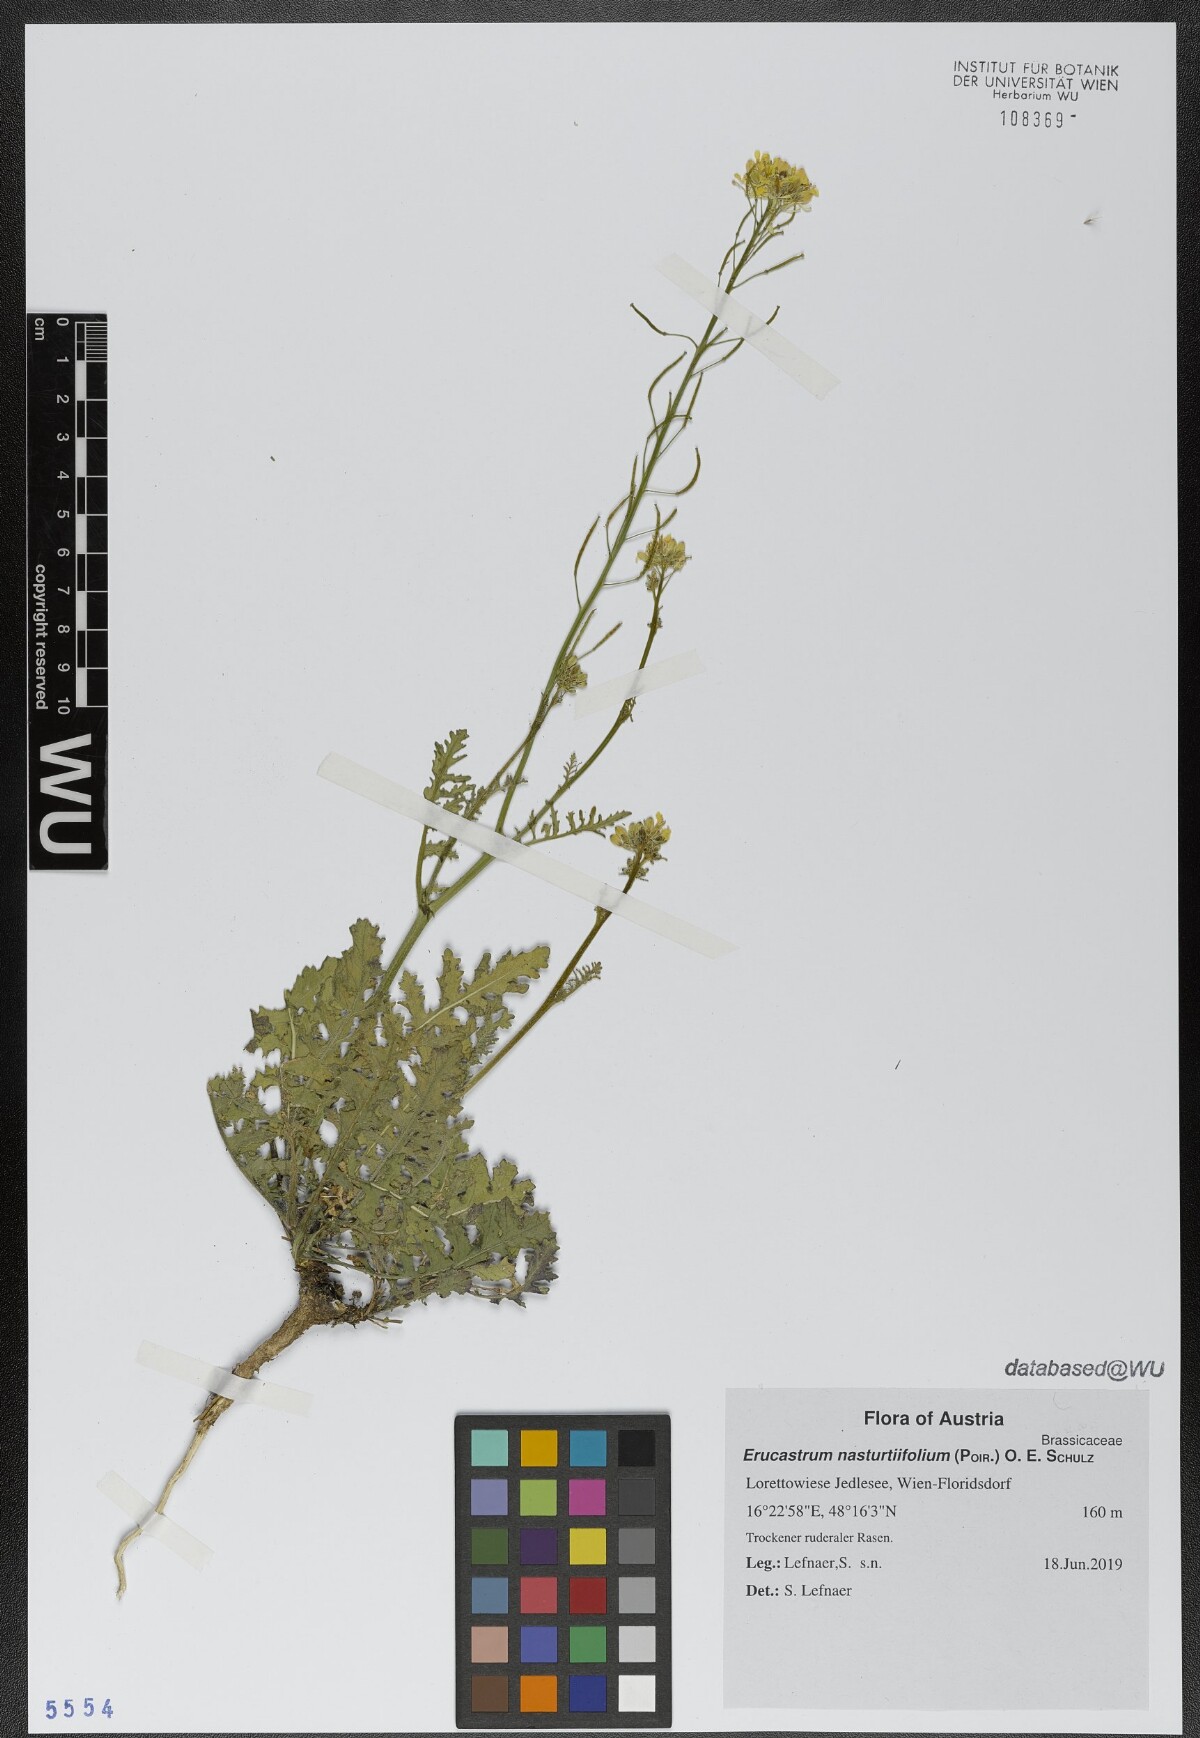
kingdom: Plantae
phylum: Tracheophyta
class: Magnoliopsida
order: Brassicales
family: Brassicaceae
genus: Erucastrum
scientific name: Erucastrum nasturtiifolium
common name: Watercress-leaf rocket
